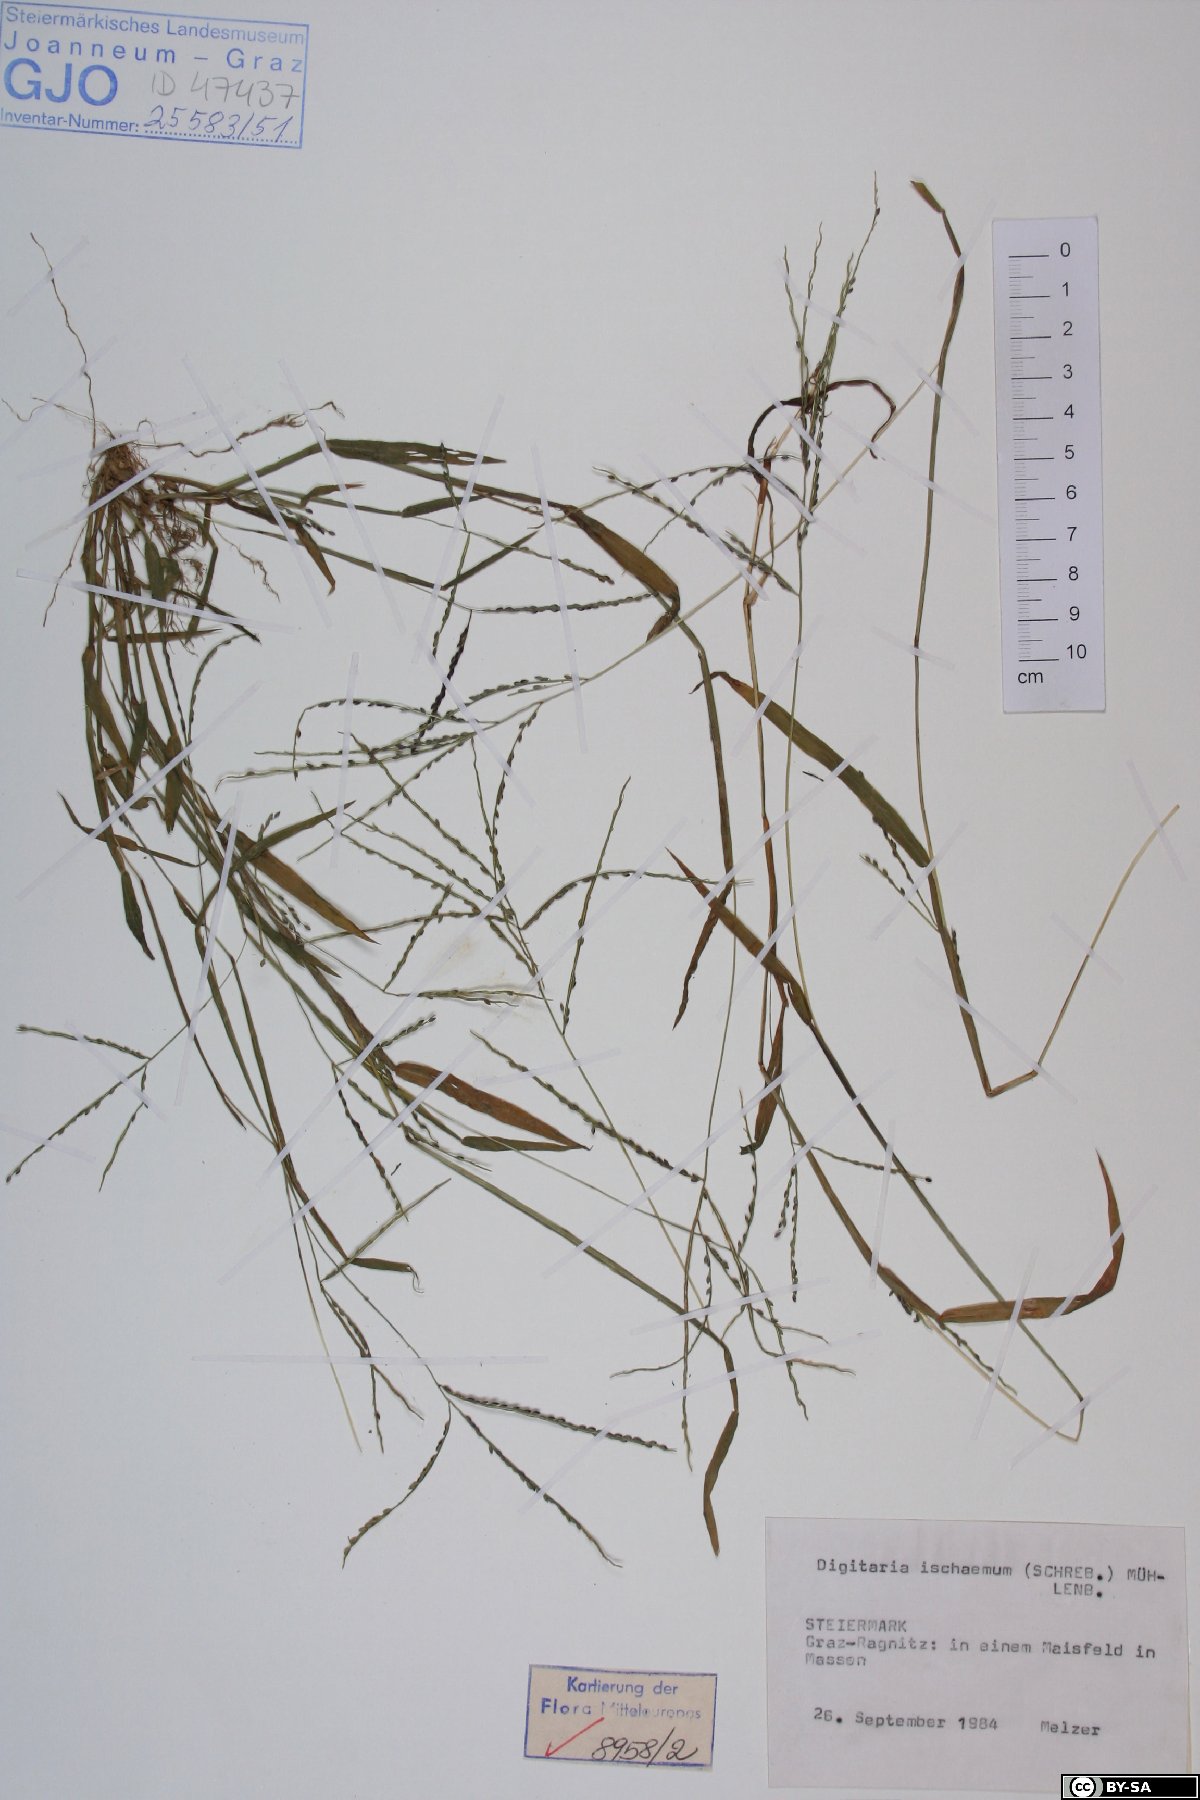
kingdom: Plantae
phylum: Tracheophyta
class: Liliopsida
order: Poales
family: Poaceae
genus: Digitaria
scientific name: Digitaria ischaemum
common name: Smooth crabgrass
